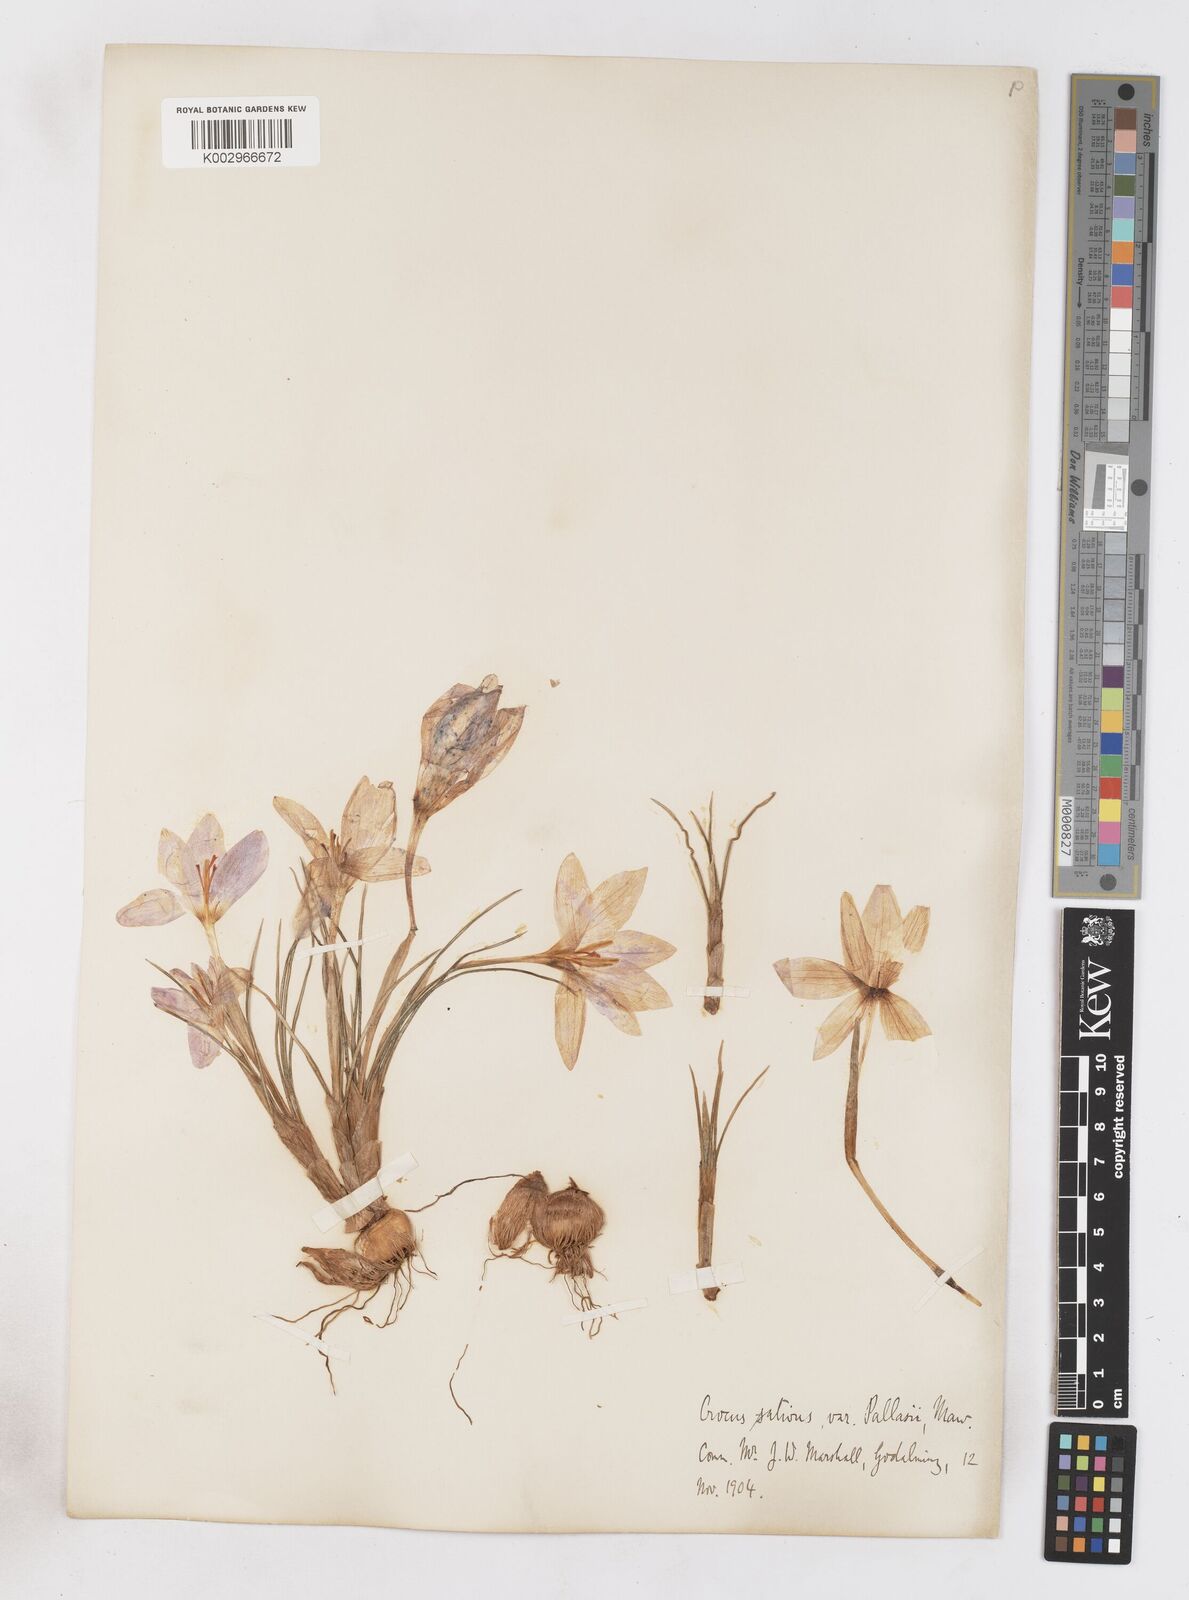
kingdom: Plantae
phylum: Tracheophyta
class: Liliopsida
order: Asparagales
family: Iridaceae
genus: Crocus
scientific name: Crocus longiflorus
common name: Italian crocus
